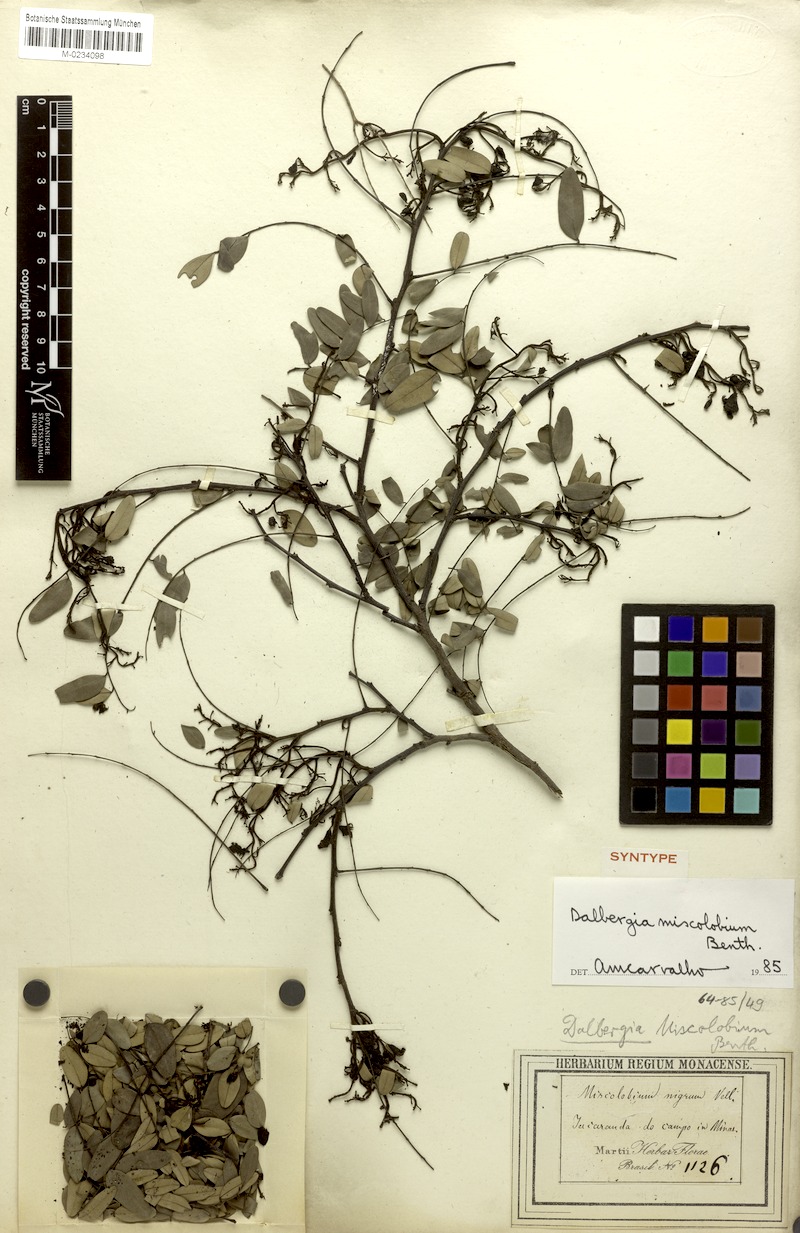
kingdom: Plantae
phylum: Tracheophyta
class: Magnoliopsida
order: Fabales
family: Fabaceae
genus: Dalbergia
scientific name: Dalbergia miscolobium
